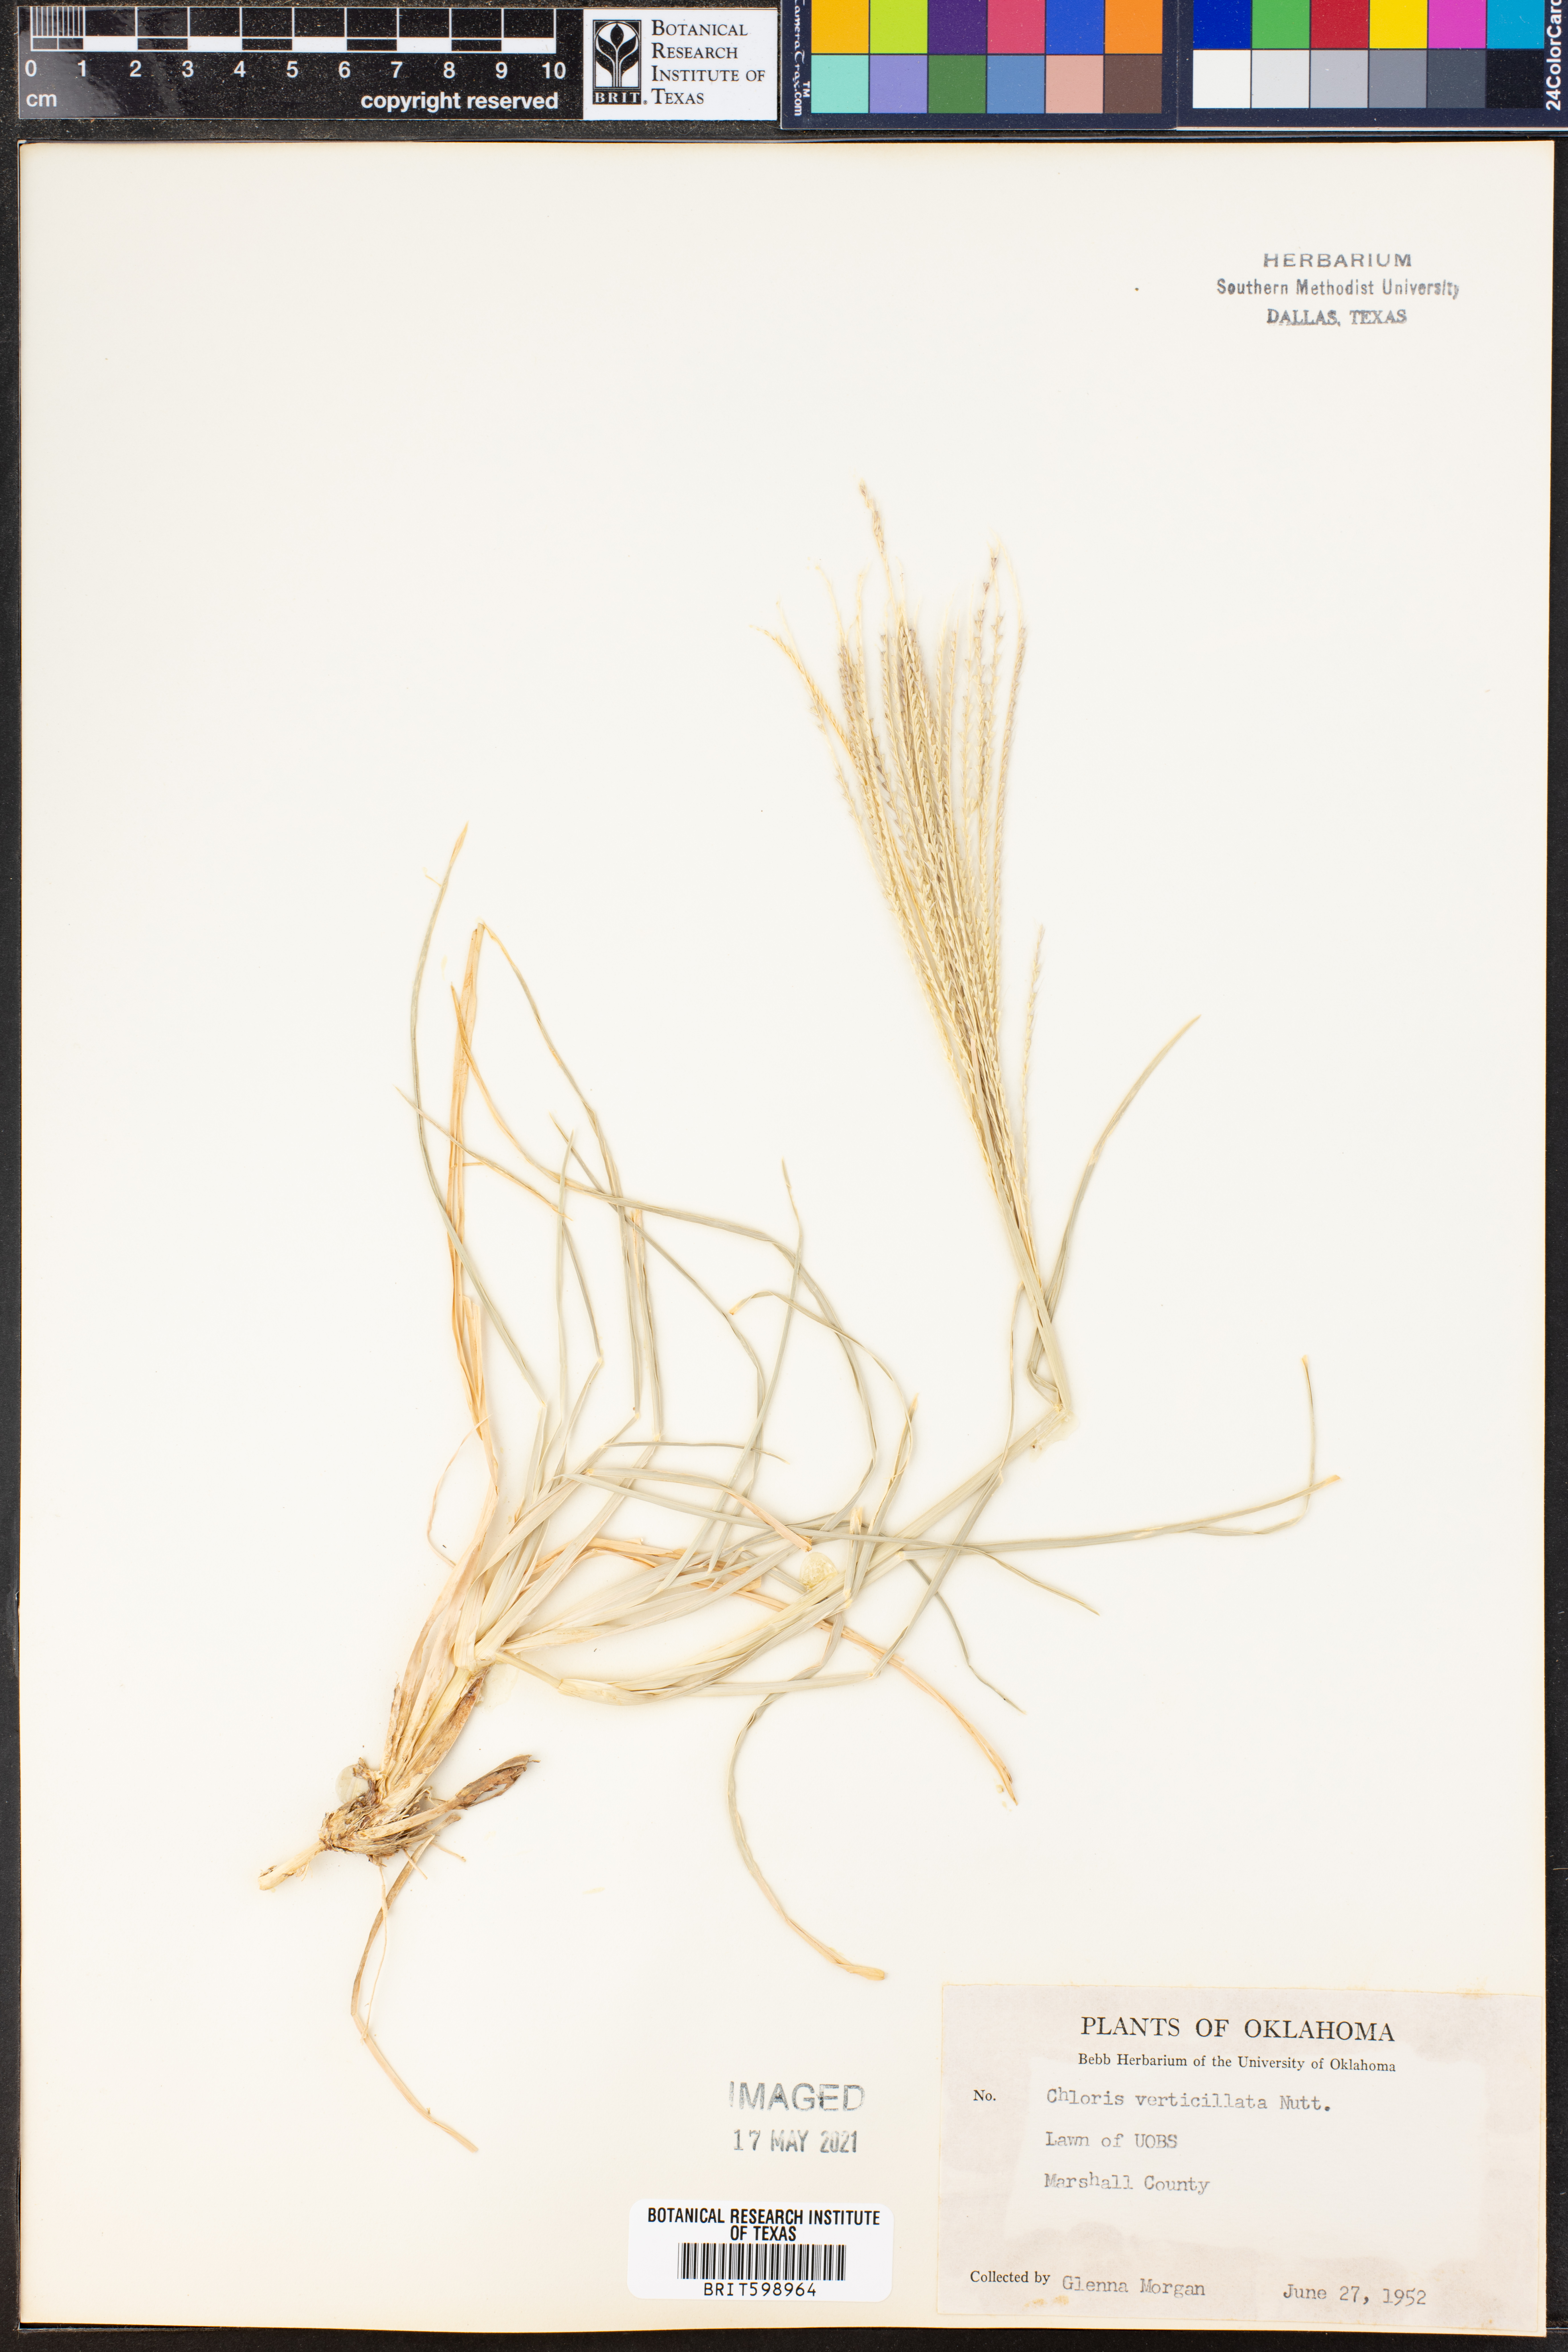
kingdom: Plantae
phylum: Tracheophyta
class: Liliopsida
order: Poales
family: Poaceae
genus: Chloris
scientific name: Chloris verticillata
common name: Tumble windmill grass
